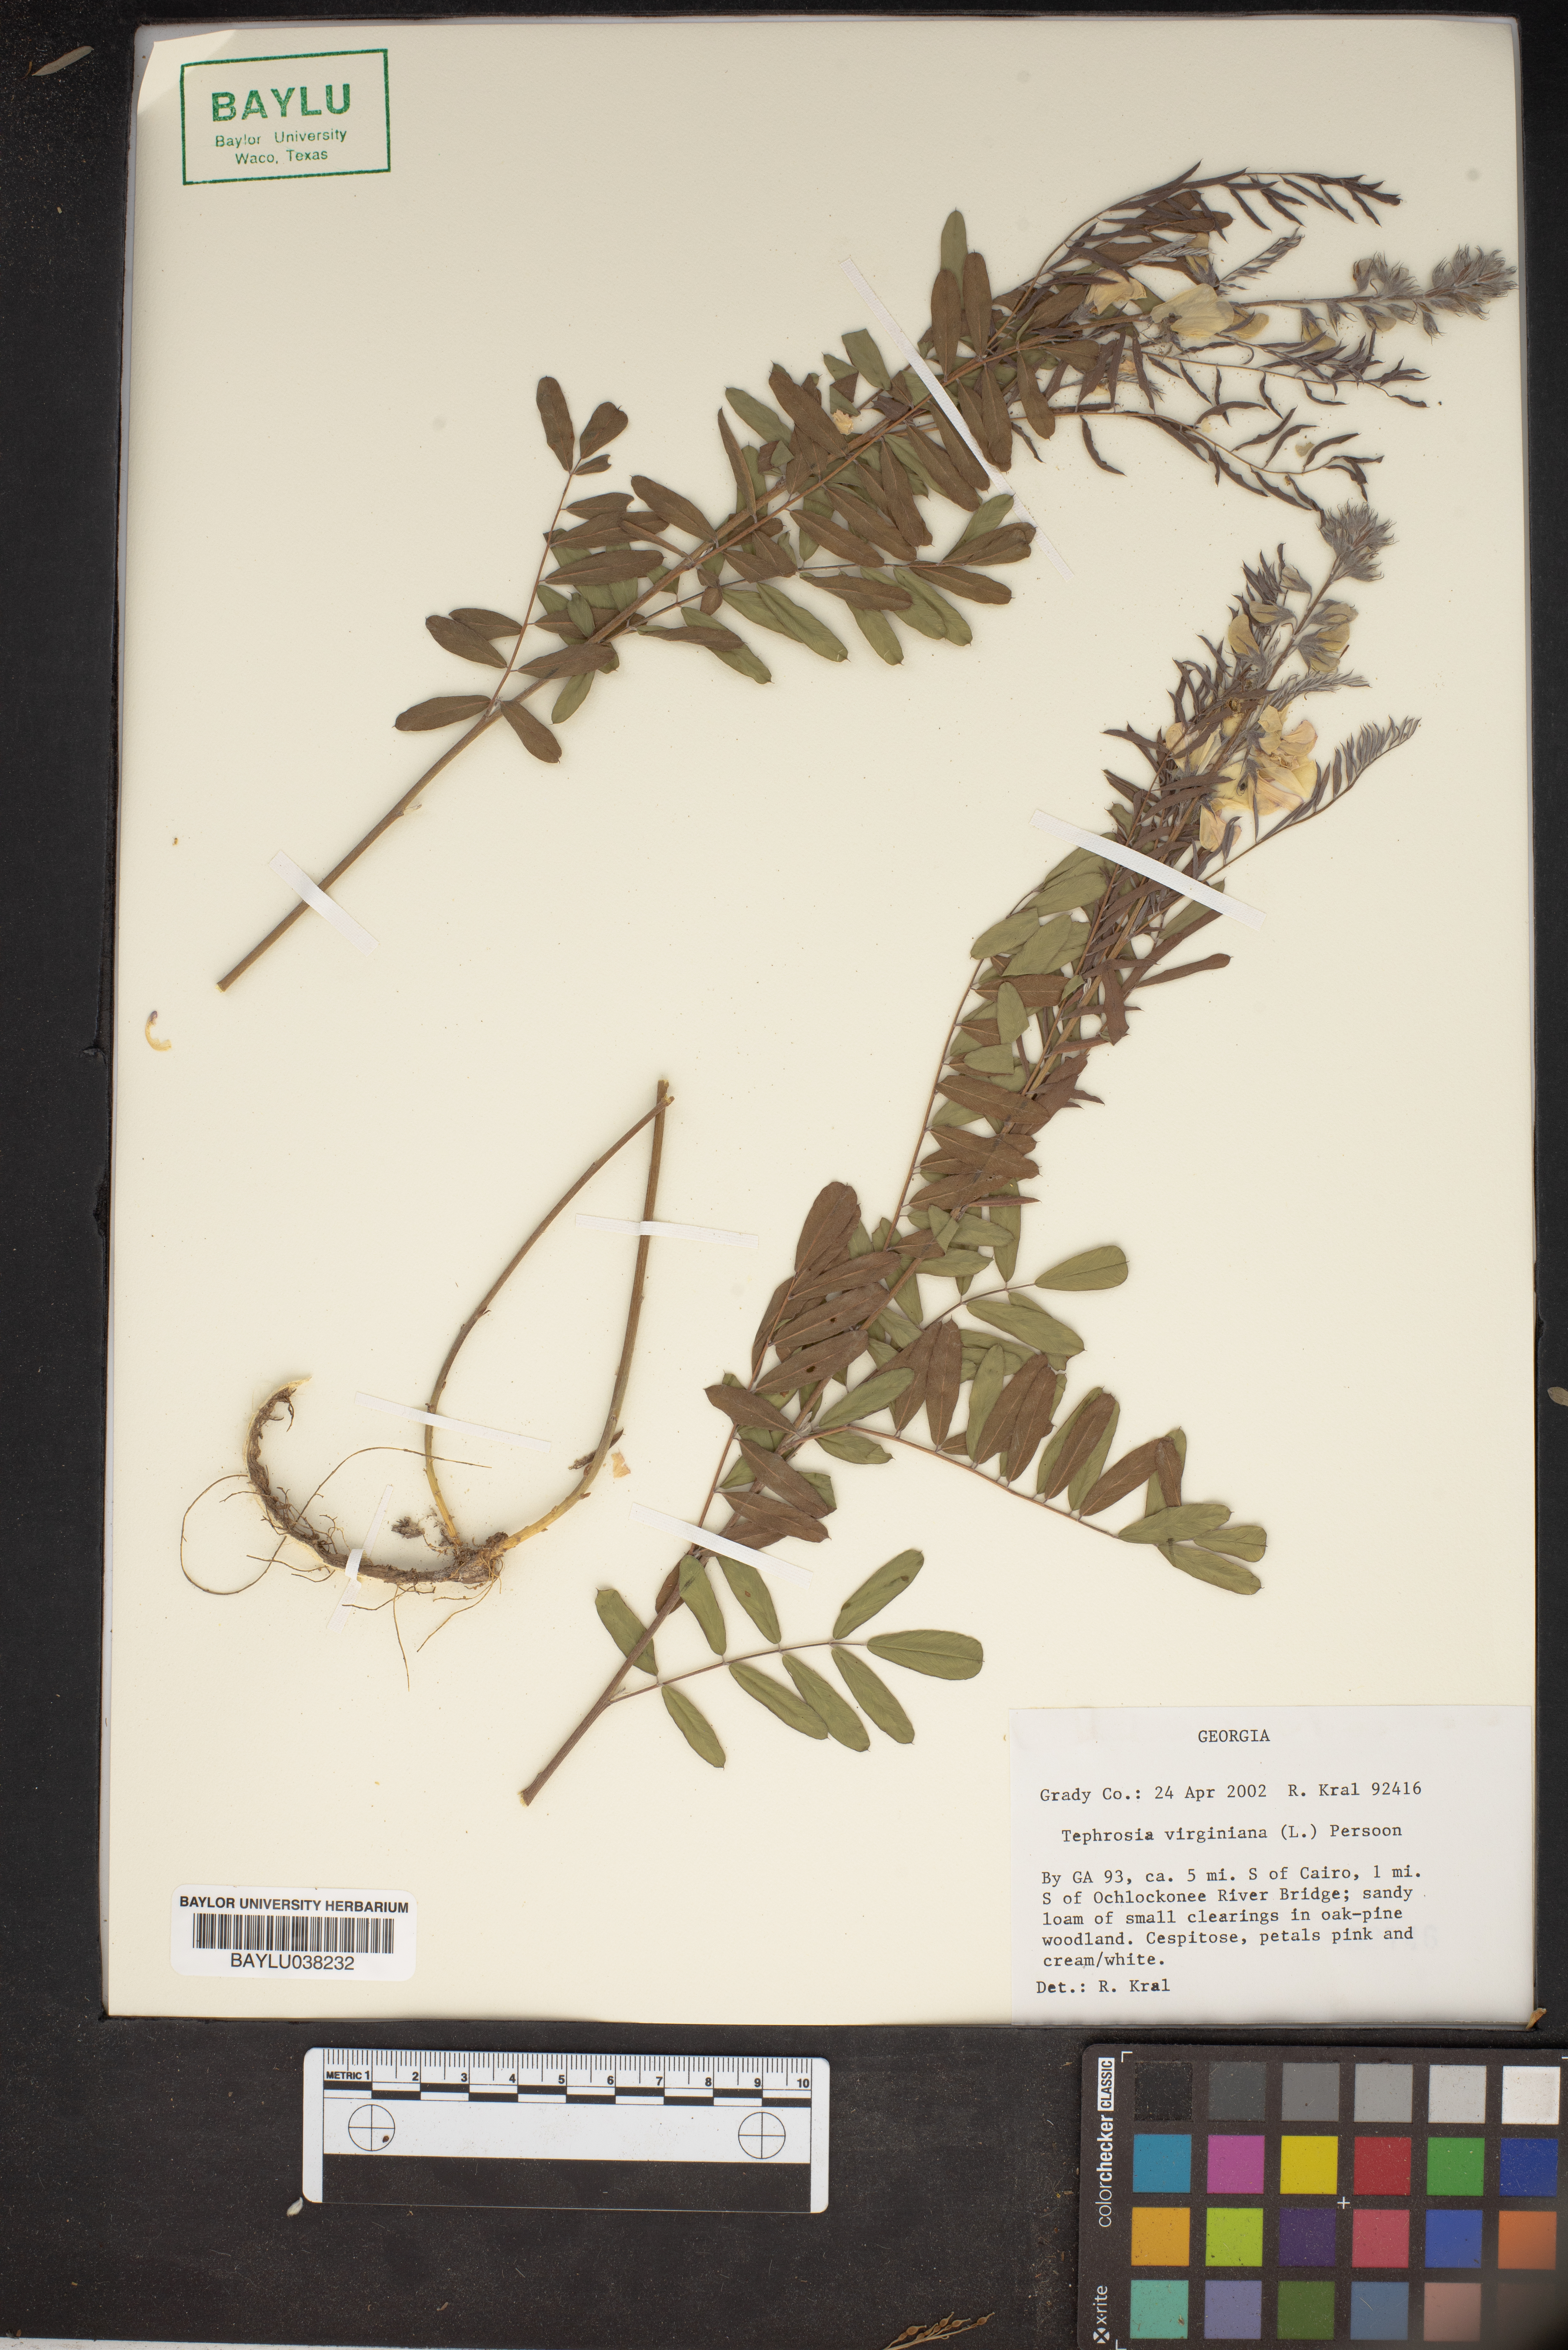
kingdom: Plantae
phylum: Tracheophyta
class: Magnoliopsida
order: Fabales
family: Fabaceae
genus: Tephrosia
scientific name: Tephrosia virginiana
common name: Rabbit-pea
